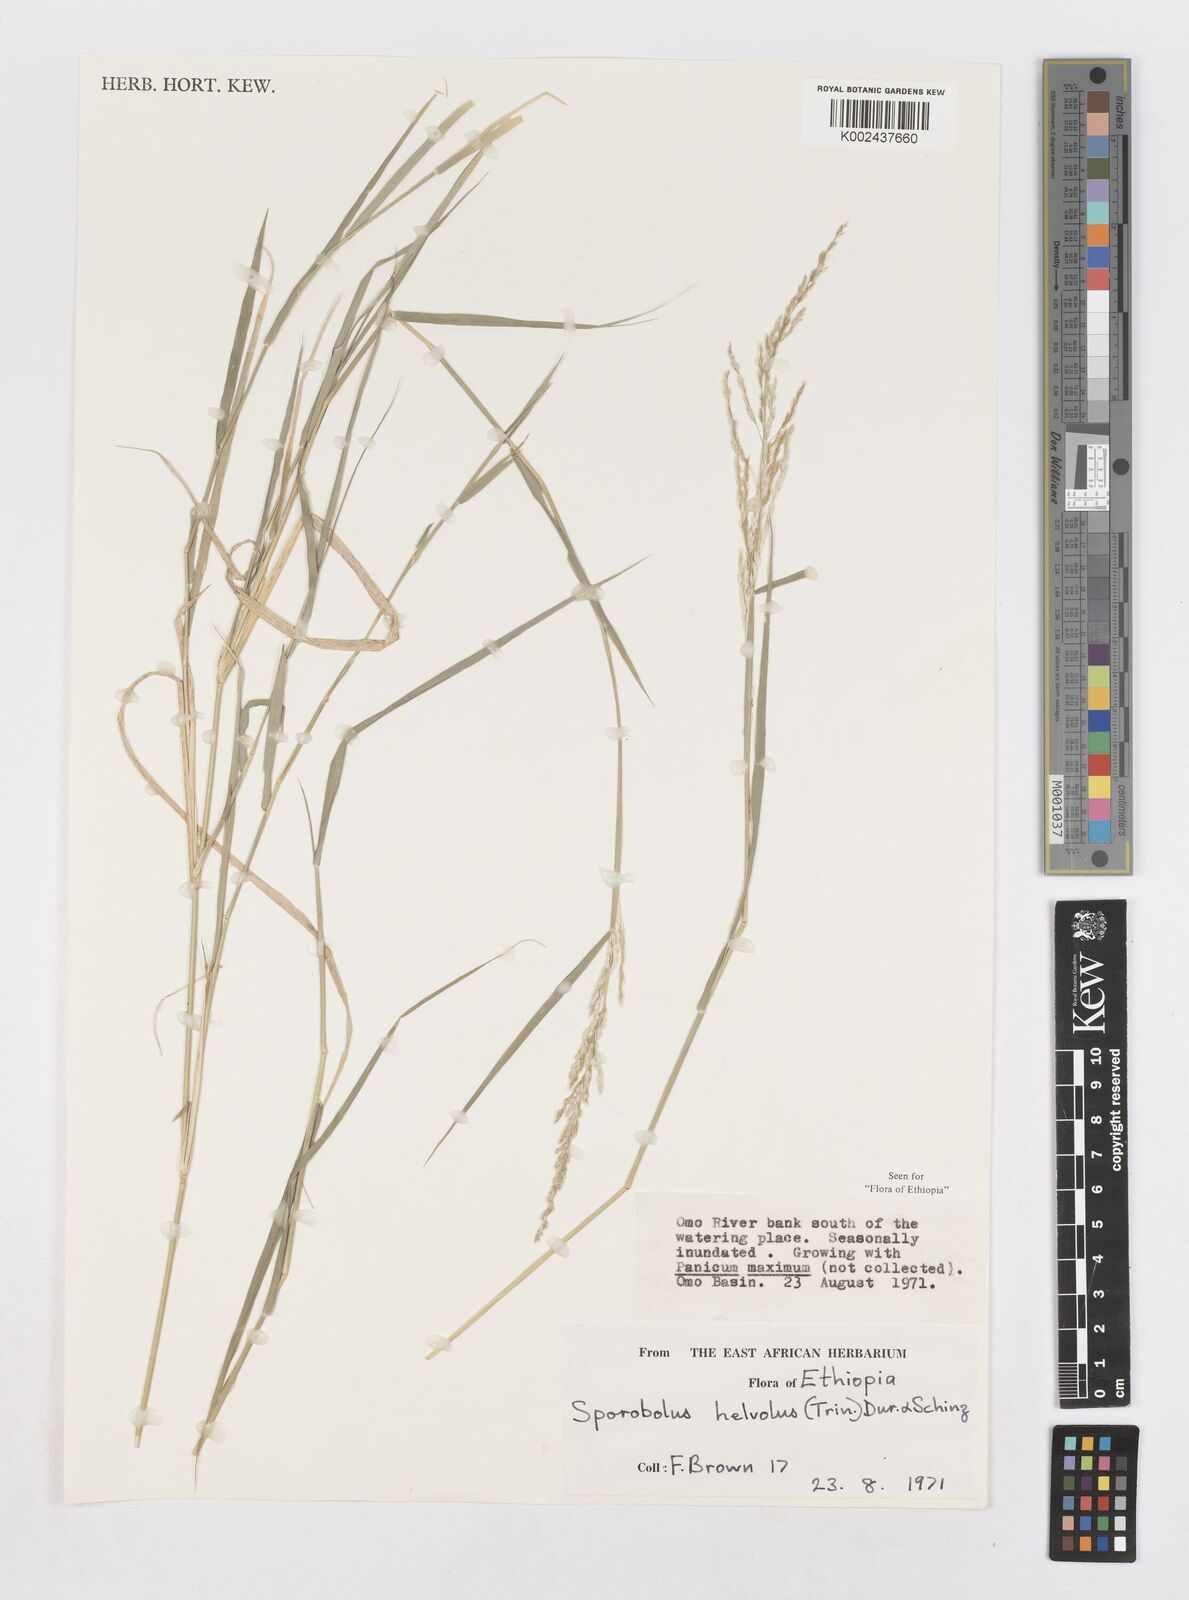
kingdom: Plantae
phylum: Tracheophyta
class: Liliopsida
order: Poales
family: Poaceae
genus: Sporobolus
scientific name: Sporobolus helvolus
